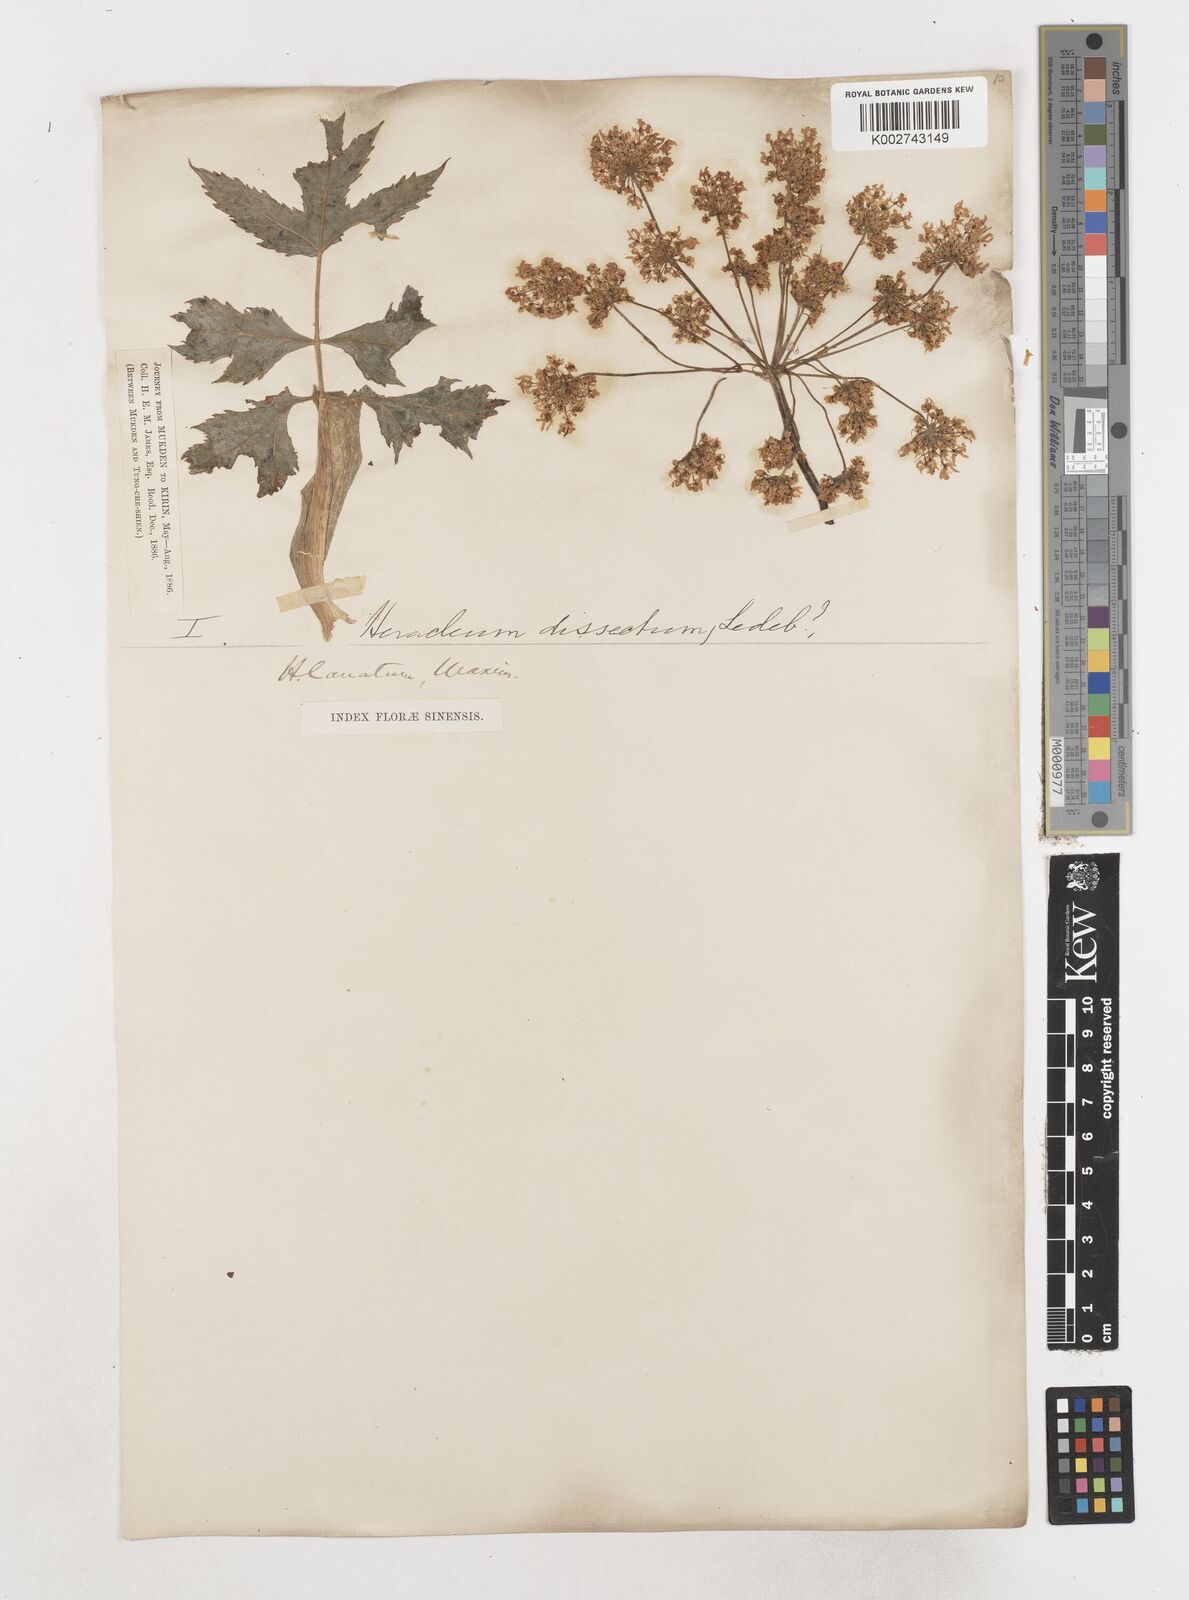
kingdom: Plantae
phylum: Tracheophyta
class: Magnoliopsida
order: Apiales
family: Apiaceae
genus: Heracleum
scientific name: Heracleum dissectum
